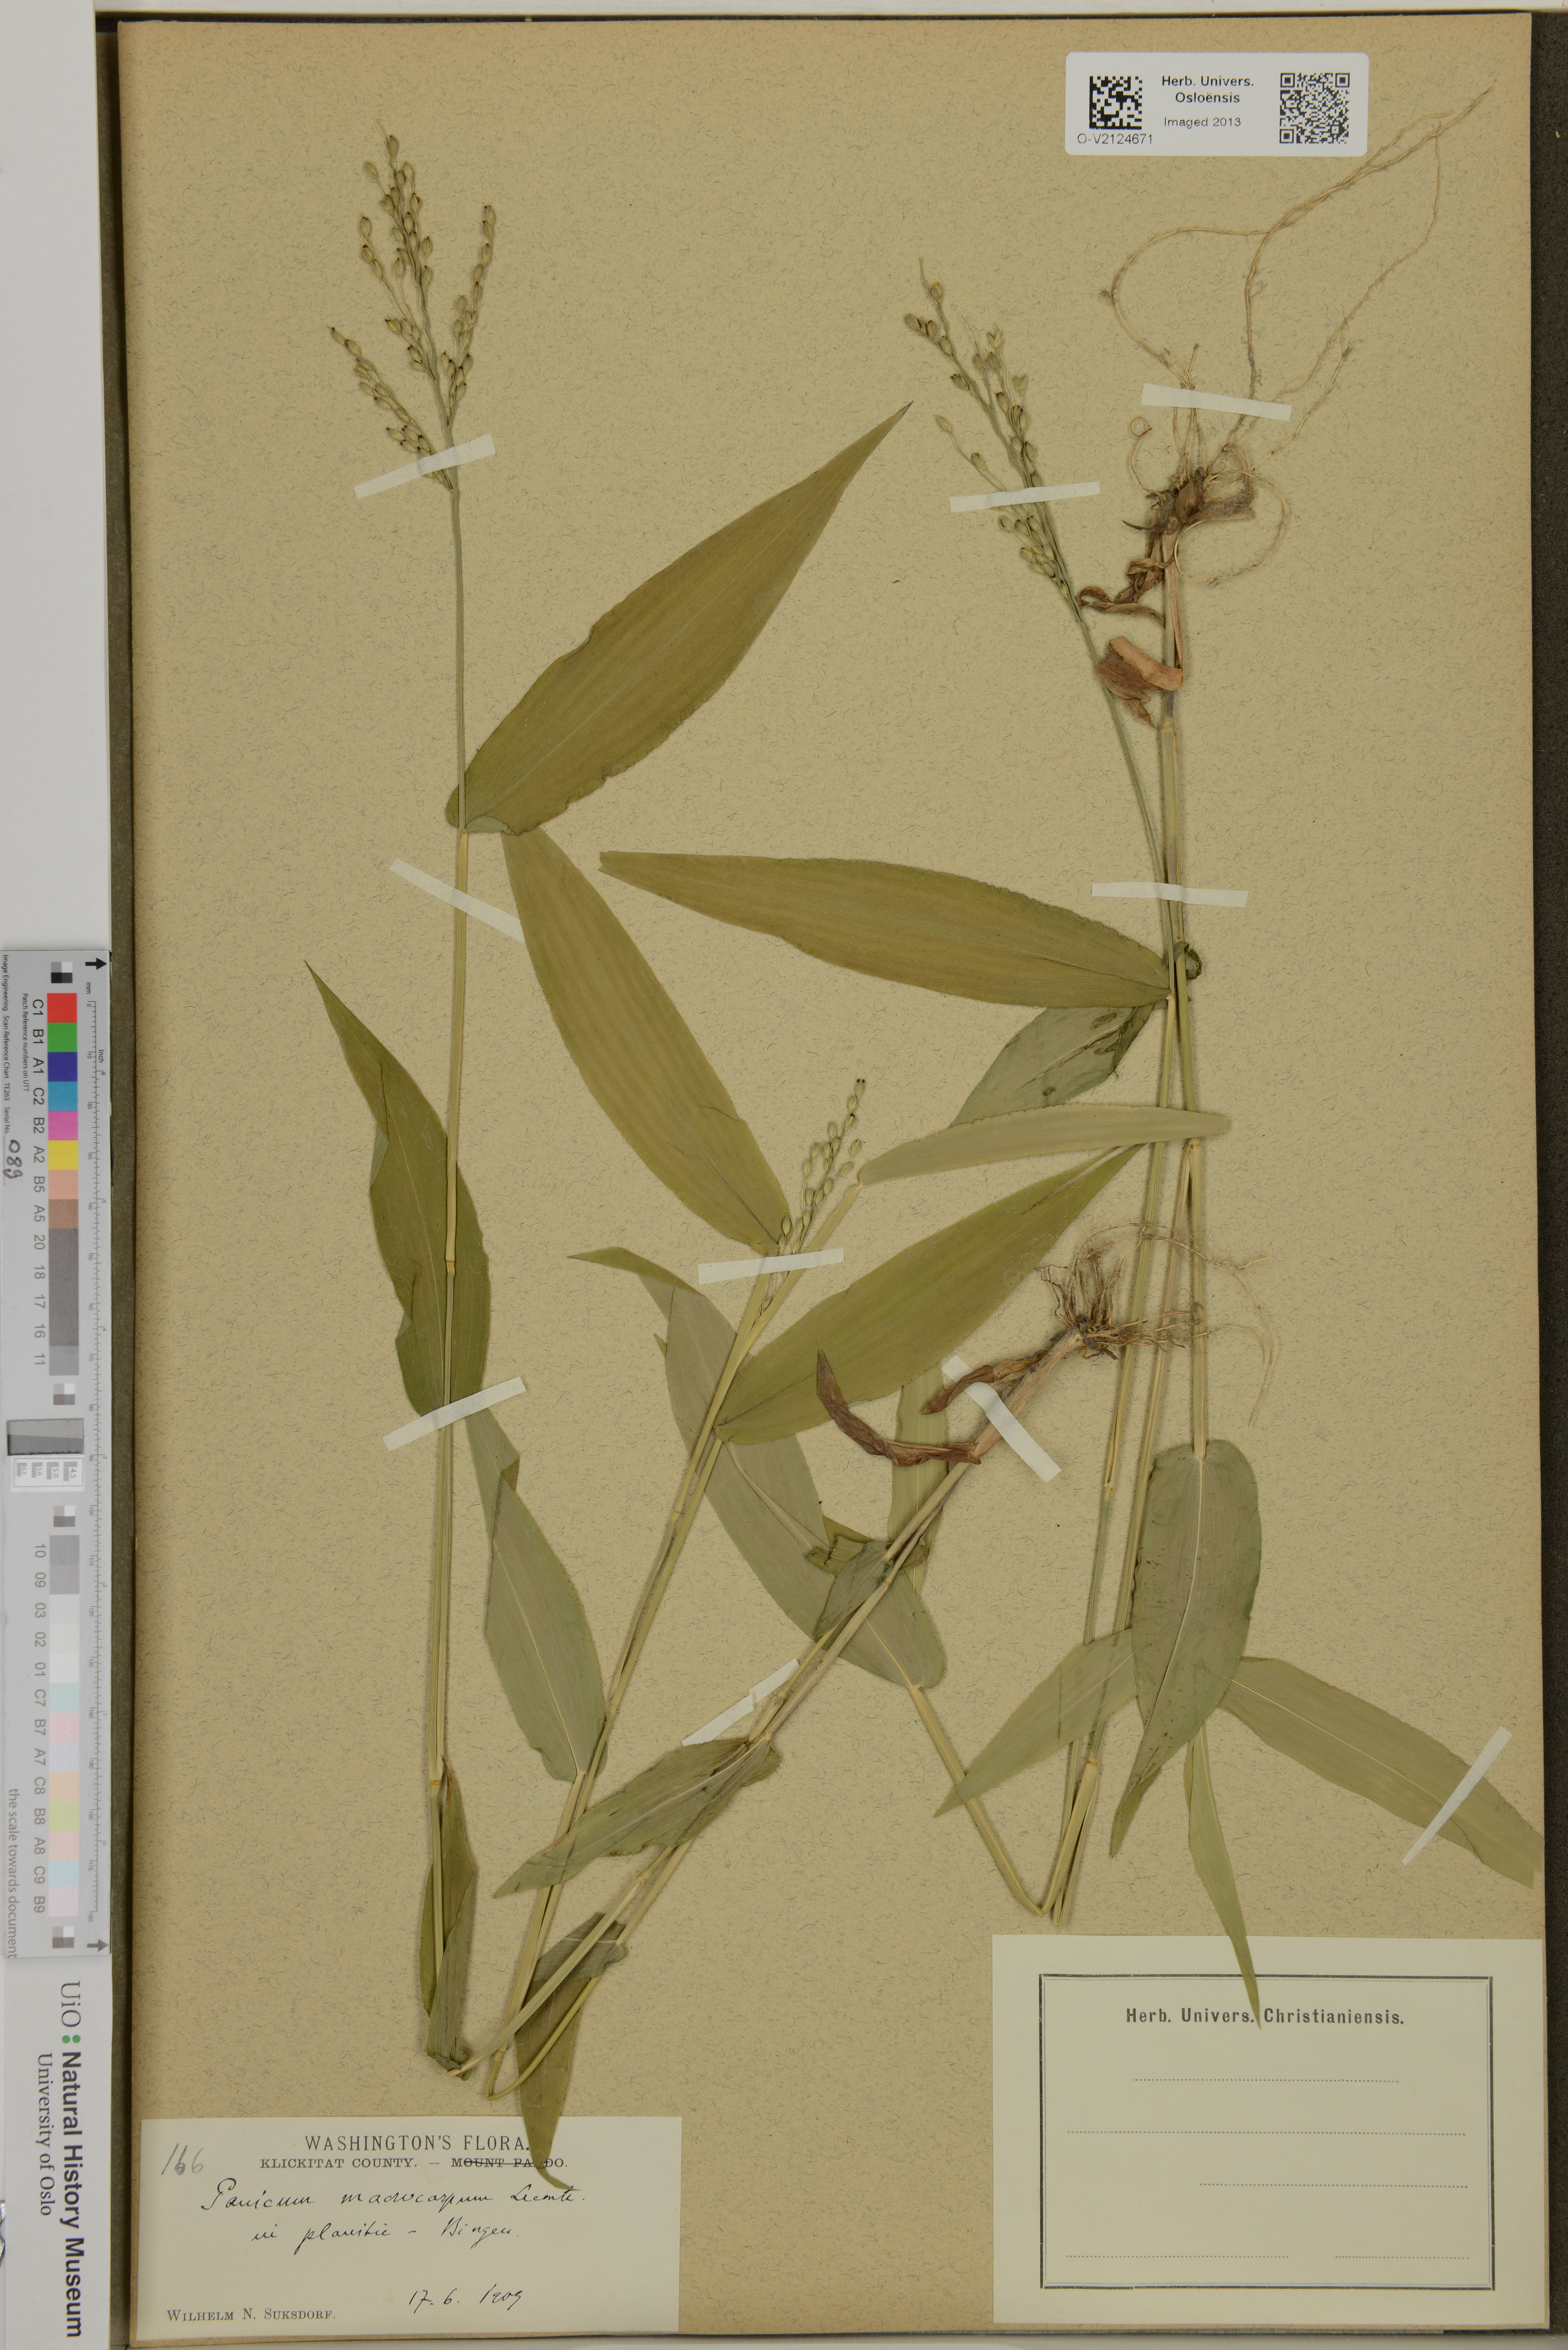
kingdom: Plantae
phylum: Tracheophyta
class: Liliopsida
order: Poales
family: Poaceae
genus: Dichanthelium
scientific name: Dichanthelium
